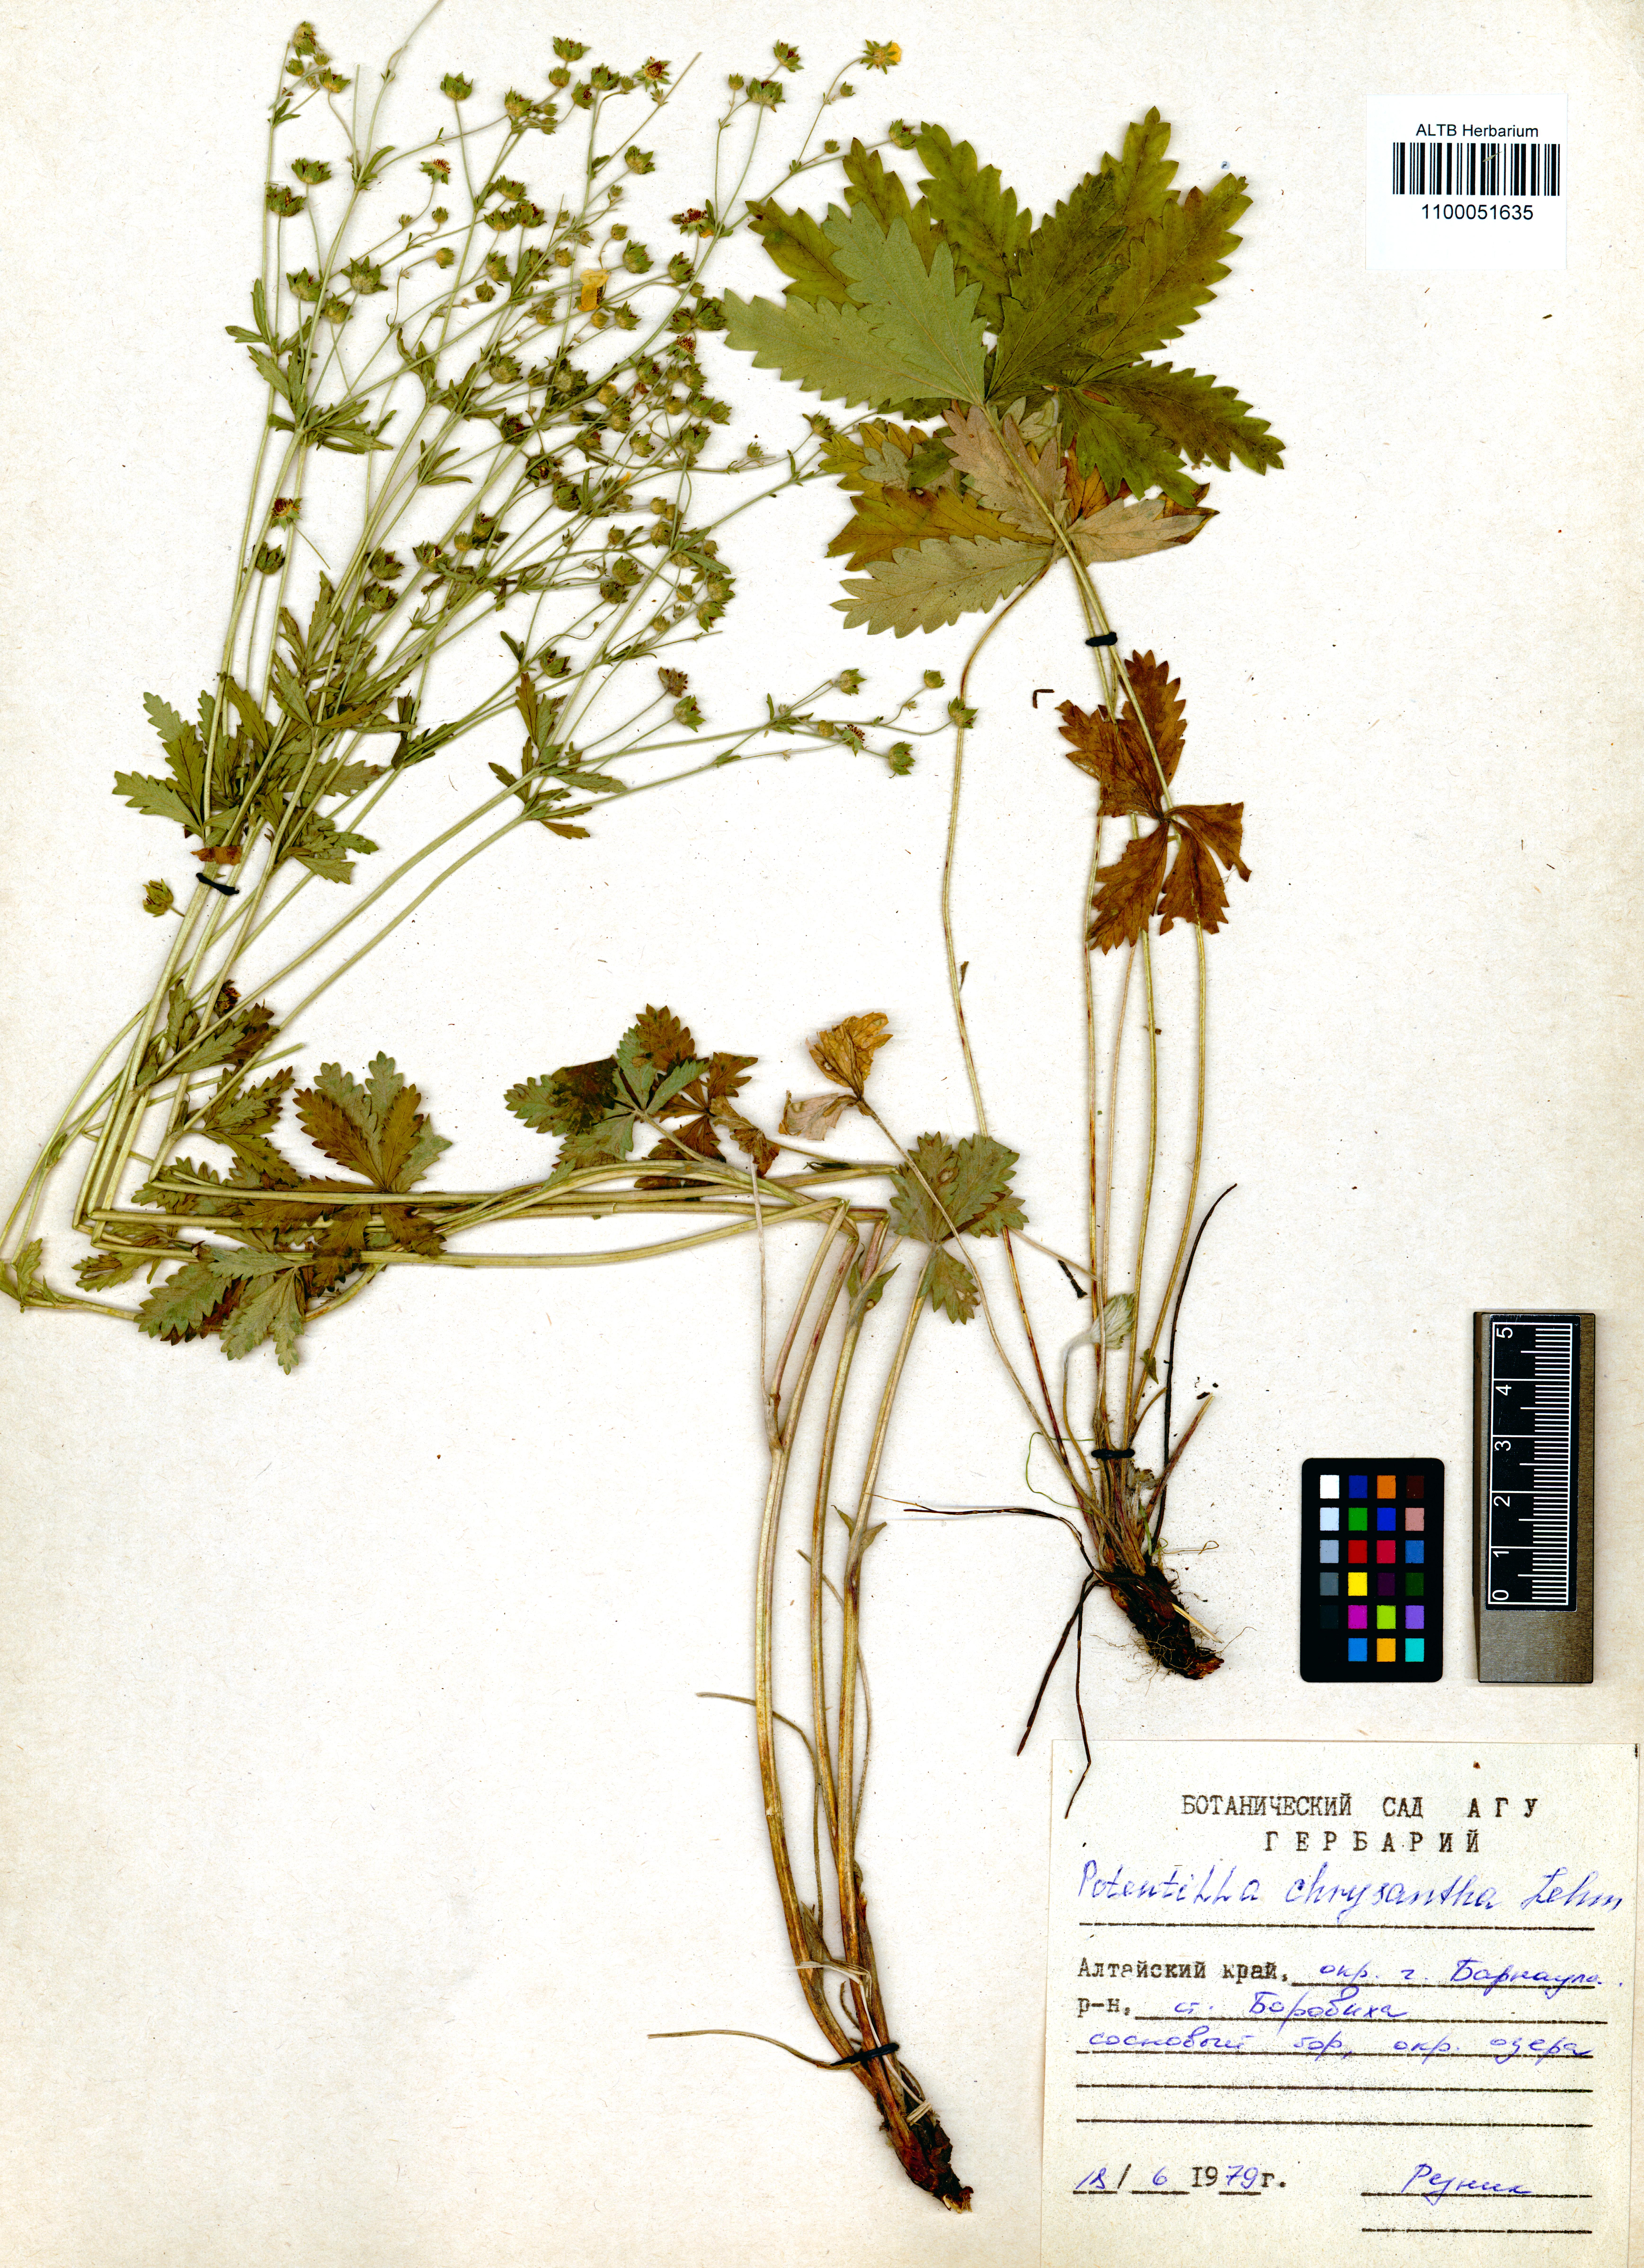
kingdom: Plantae
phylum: Tracheophyta
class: Magnoliopsida
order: Rosales
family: Rosaceae
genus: Potentilla
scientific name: Potentilla chrysantha
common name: Thuringian cinquefoil
